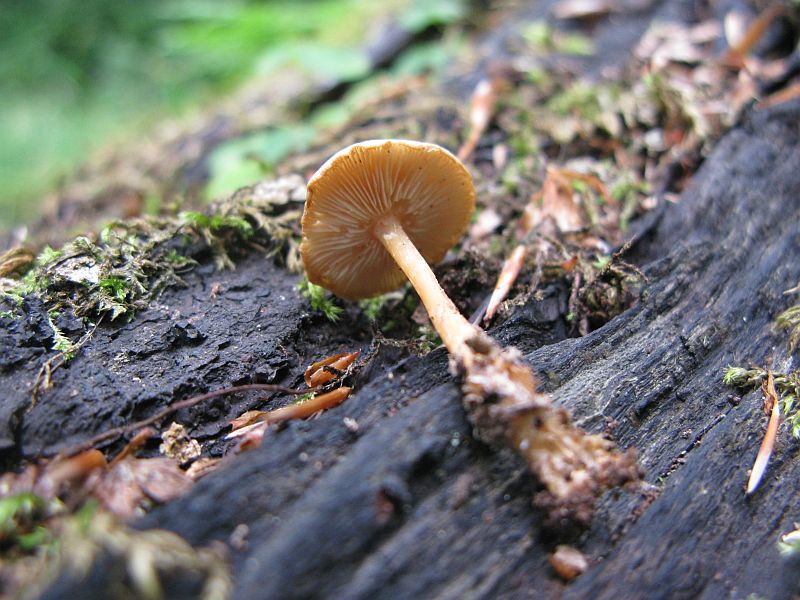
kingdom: Fungi
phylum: Basidiomycota
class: Agaricomycetes
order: Agaricales
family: Omphalotaceae
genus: Gymnopus
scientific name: Gymnopus dryophilus
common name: løv-fladhat
